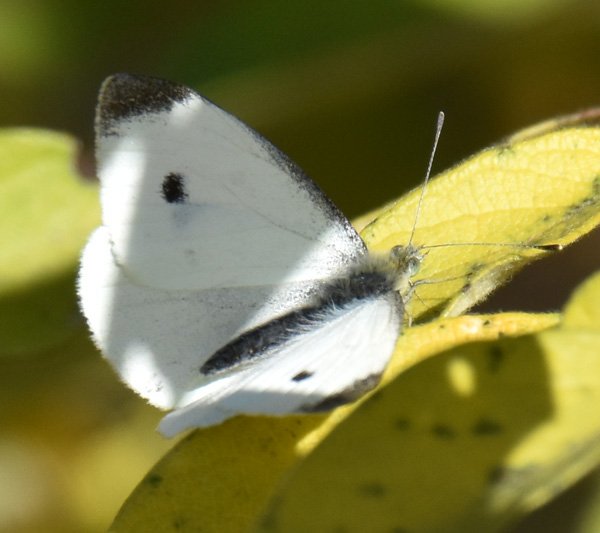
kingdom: Animalia
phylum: Arthropoda
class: Insecta
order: Lepidoptera
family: Pieridae
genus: Pieris
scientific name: Pieris rapae
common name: Cabbage White
